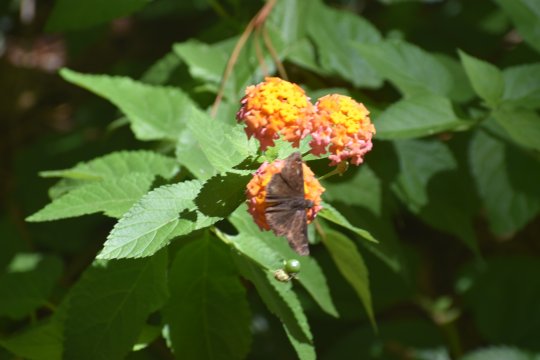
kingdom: Animalia
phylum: Arthropoda
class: Insecta
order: Lepidoptera
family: Hesperiidae
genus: Gesta
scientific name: Gesta
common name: Horace's Duskywing
